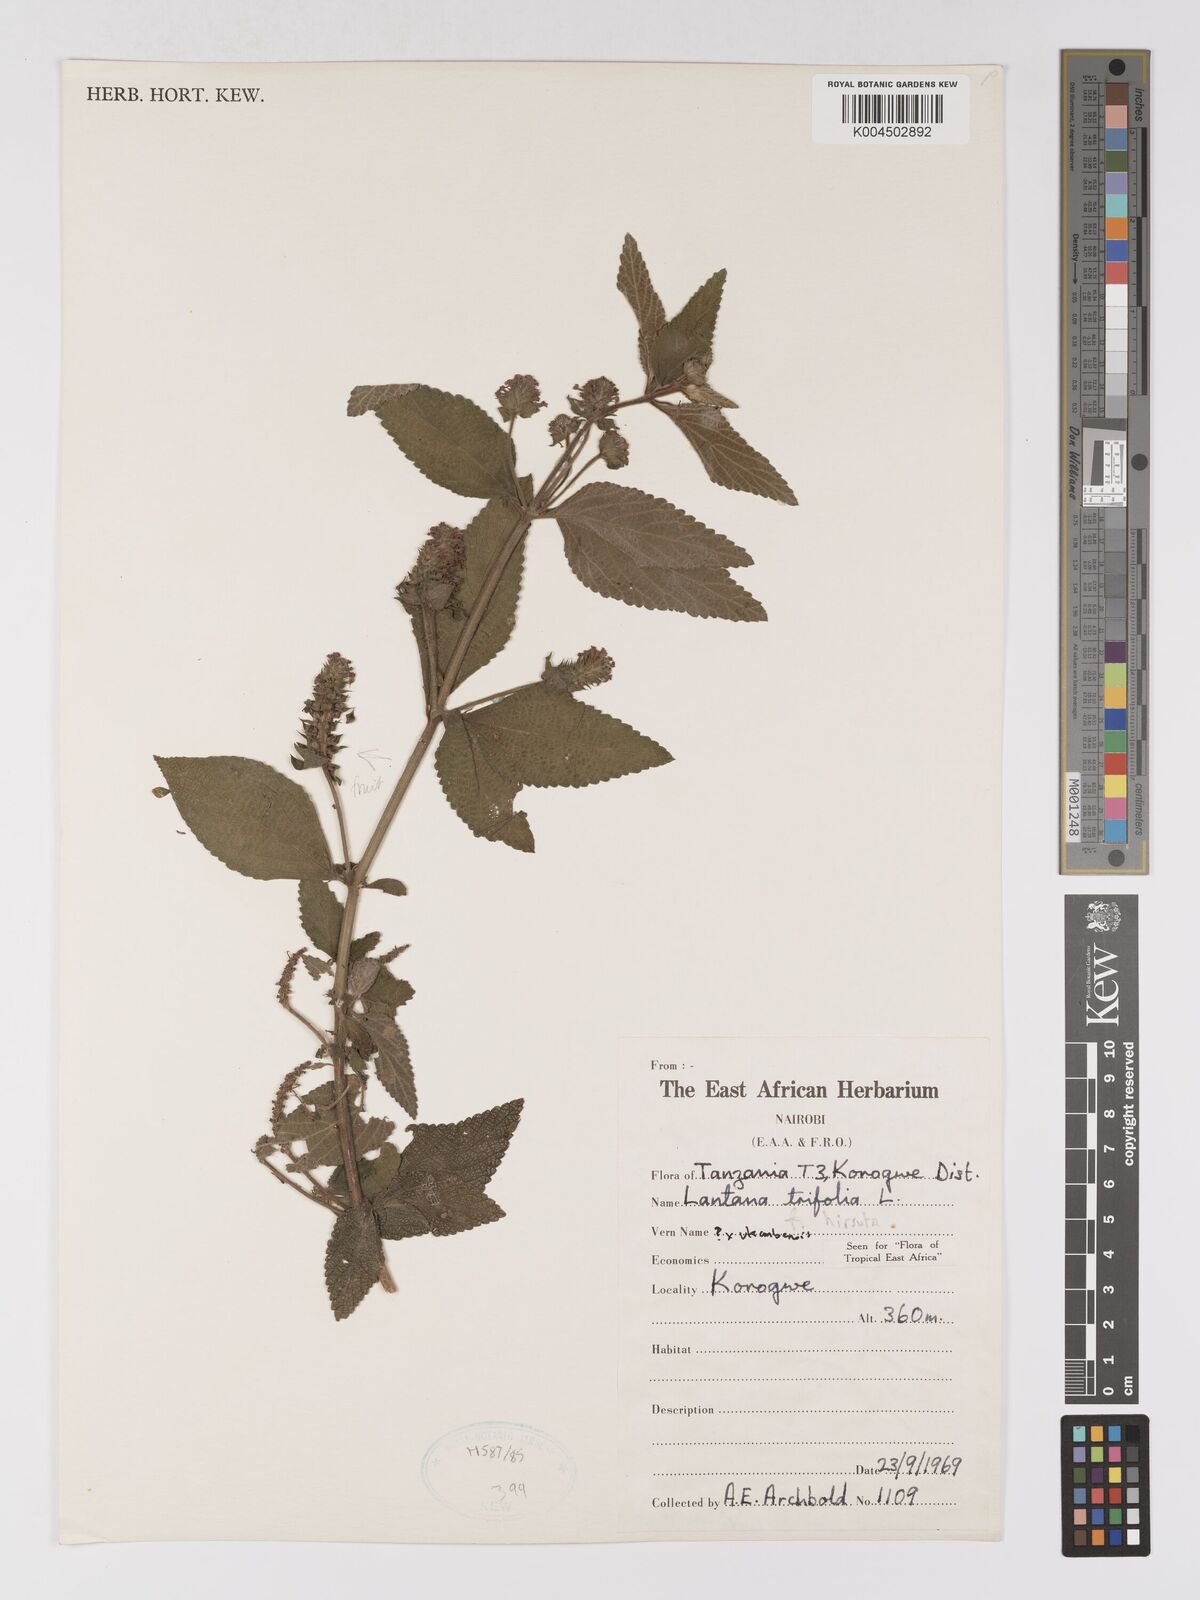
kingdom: Plantae
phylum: Tracheophyta
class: Magnoliopsida
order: Lamiales
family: Verbenaceae
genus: Lantana
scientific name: Lantana trifolia
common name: Sweet-sage
